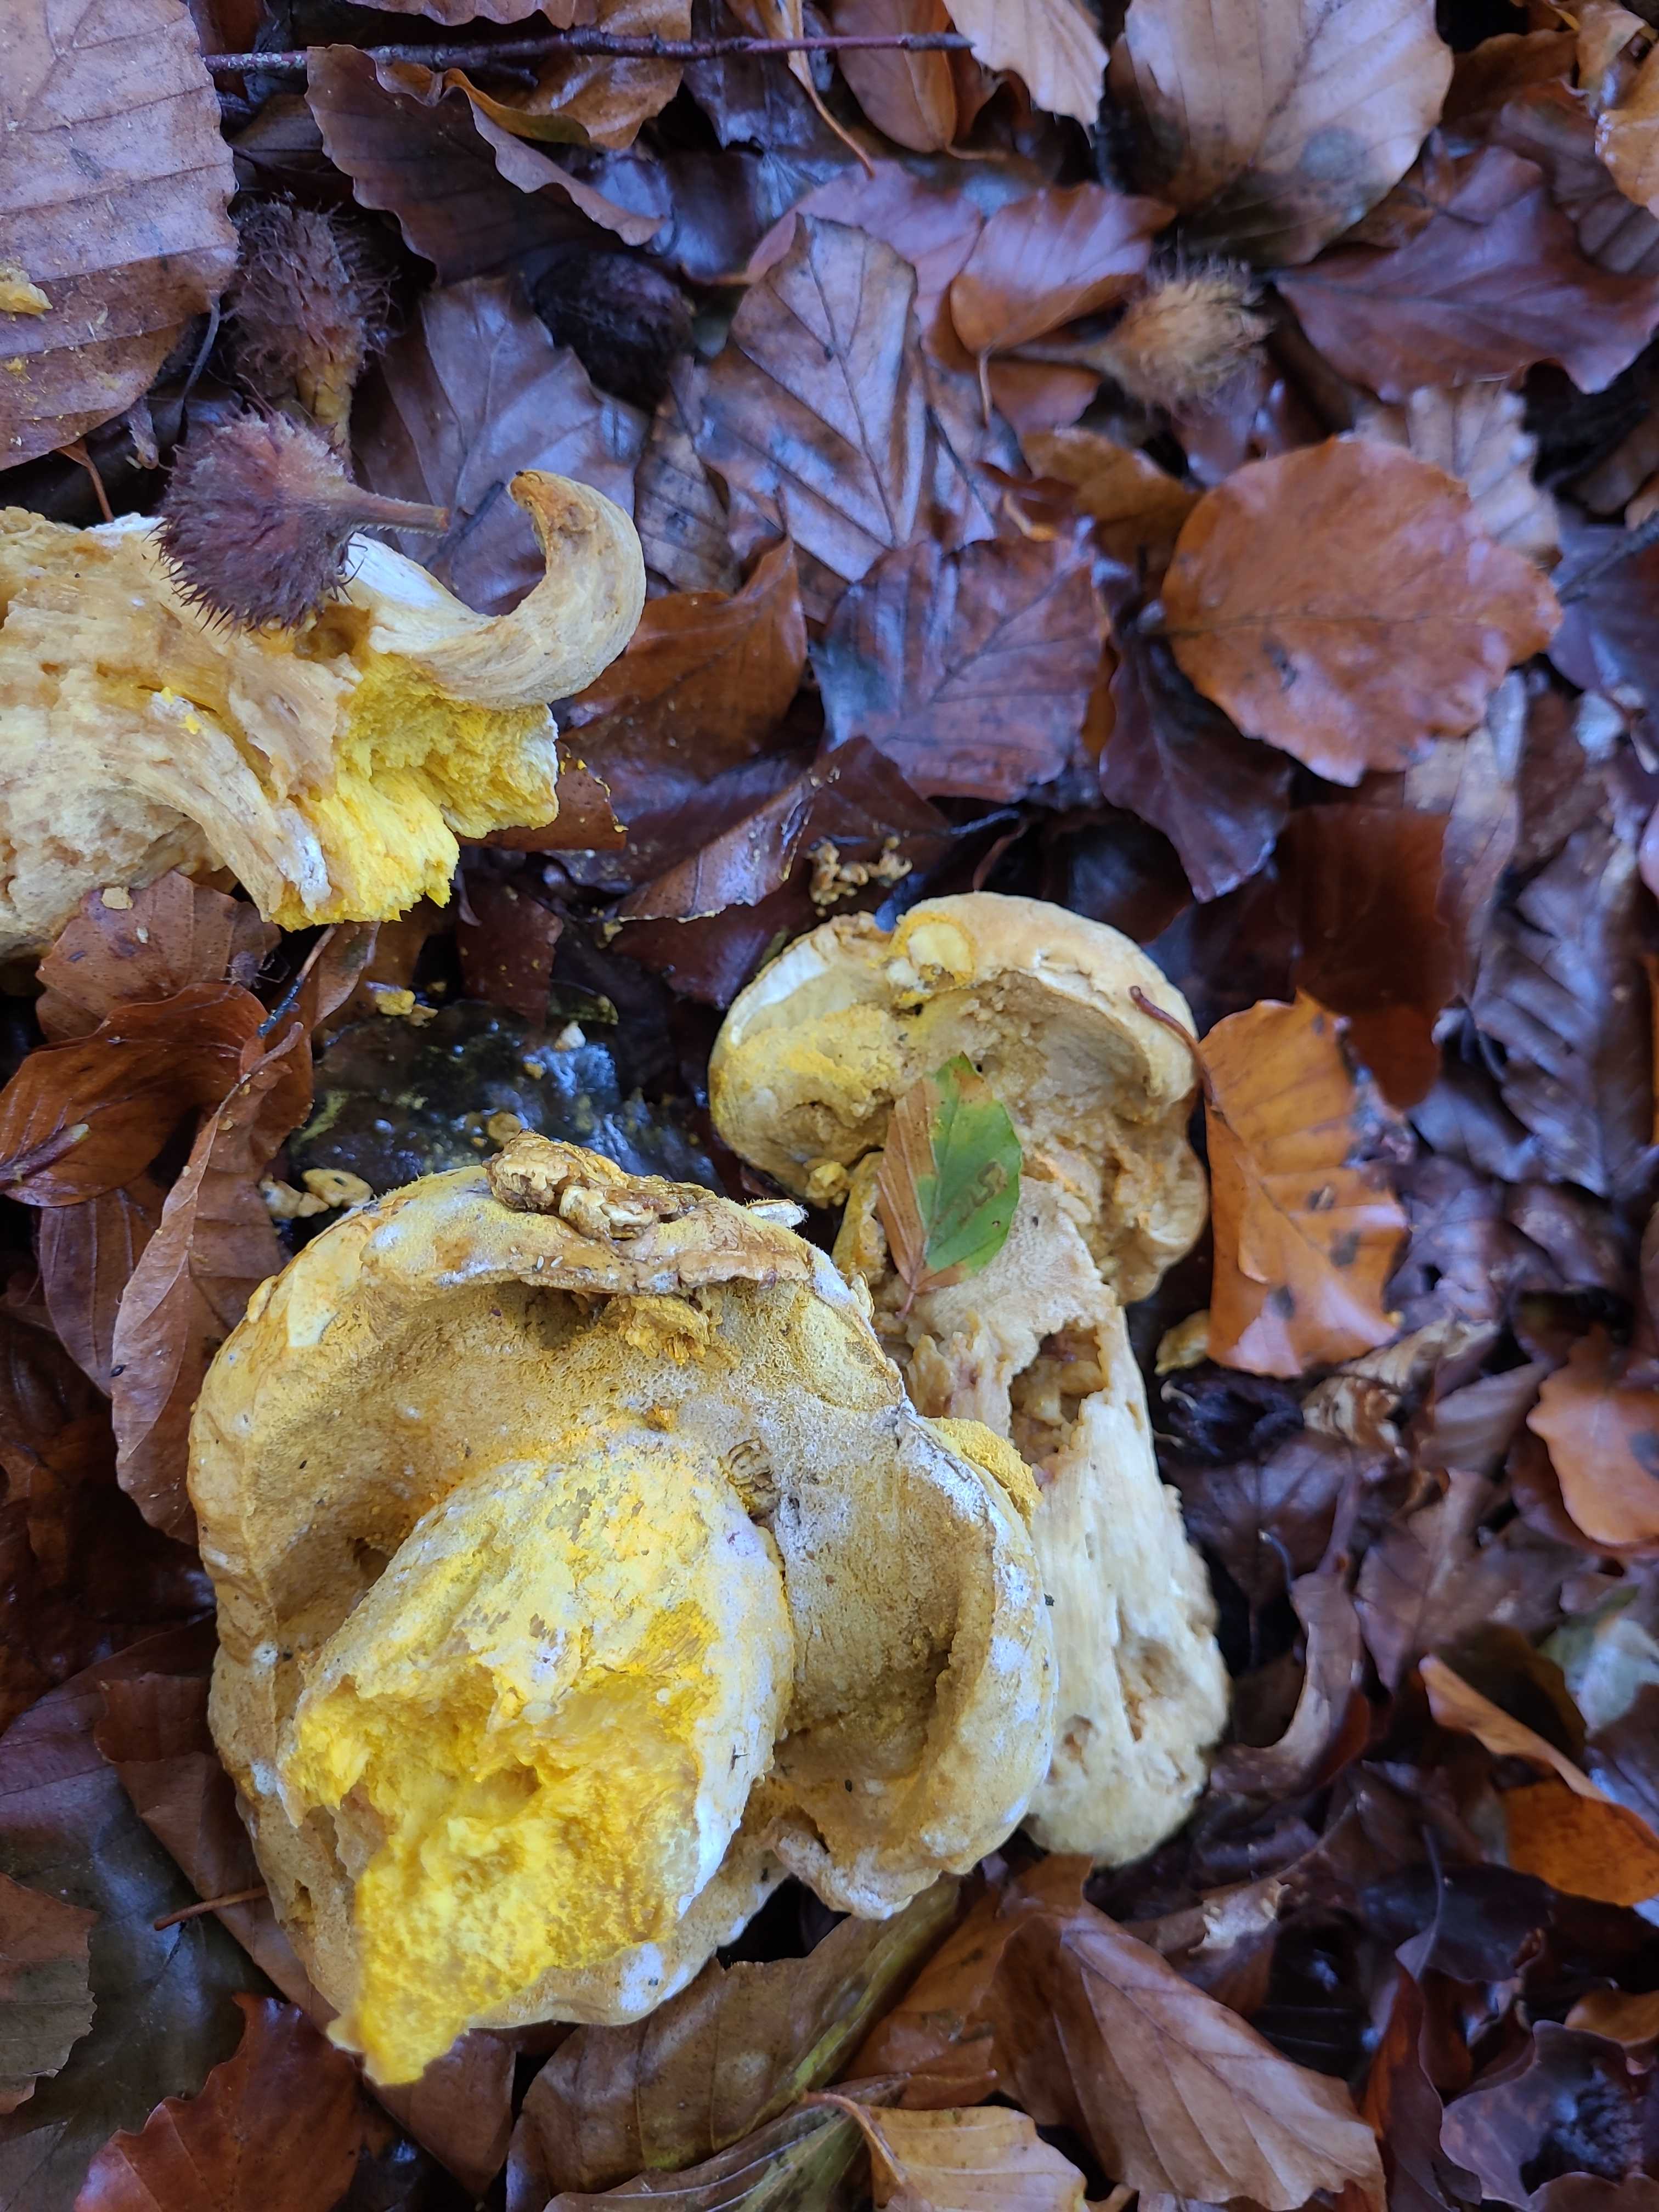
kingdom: Fungi
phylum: Ascomycota
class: Sordariomycetes
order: Hypocreales
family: Hypocreaceae
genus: Hypomyces
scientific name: Hypomyces chrysospermus
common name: gulskimmel-snylteskorpe
